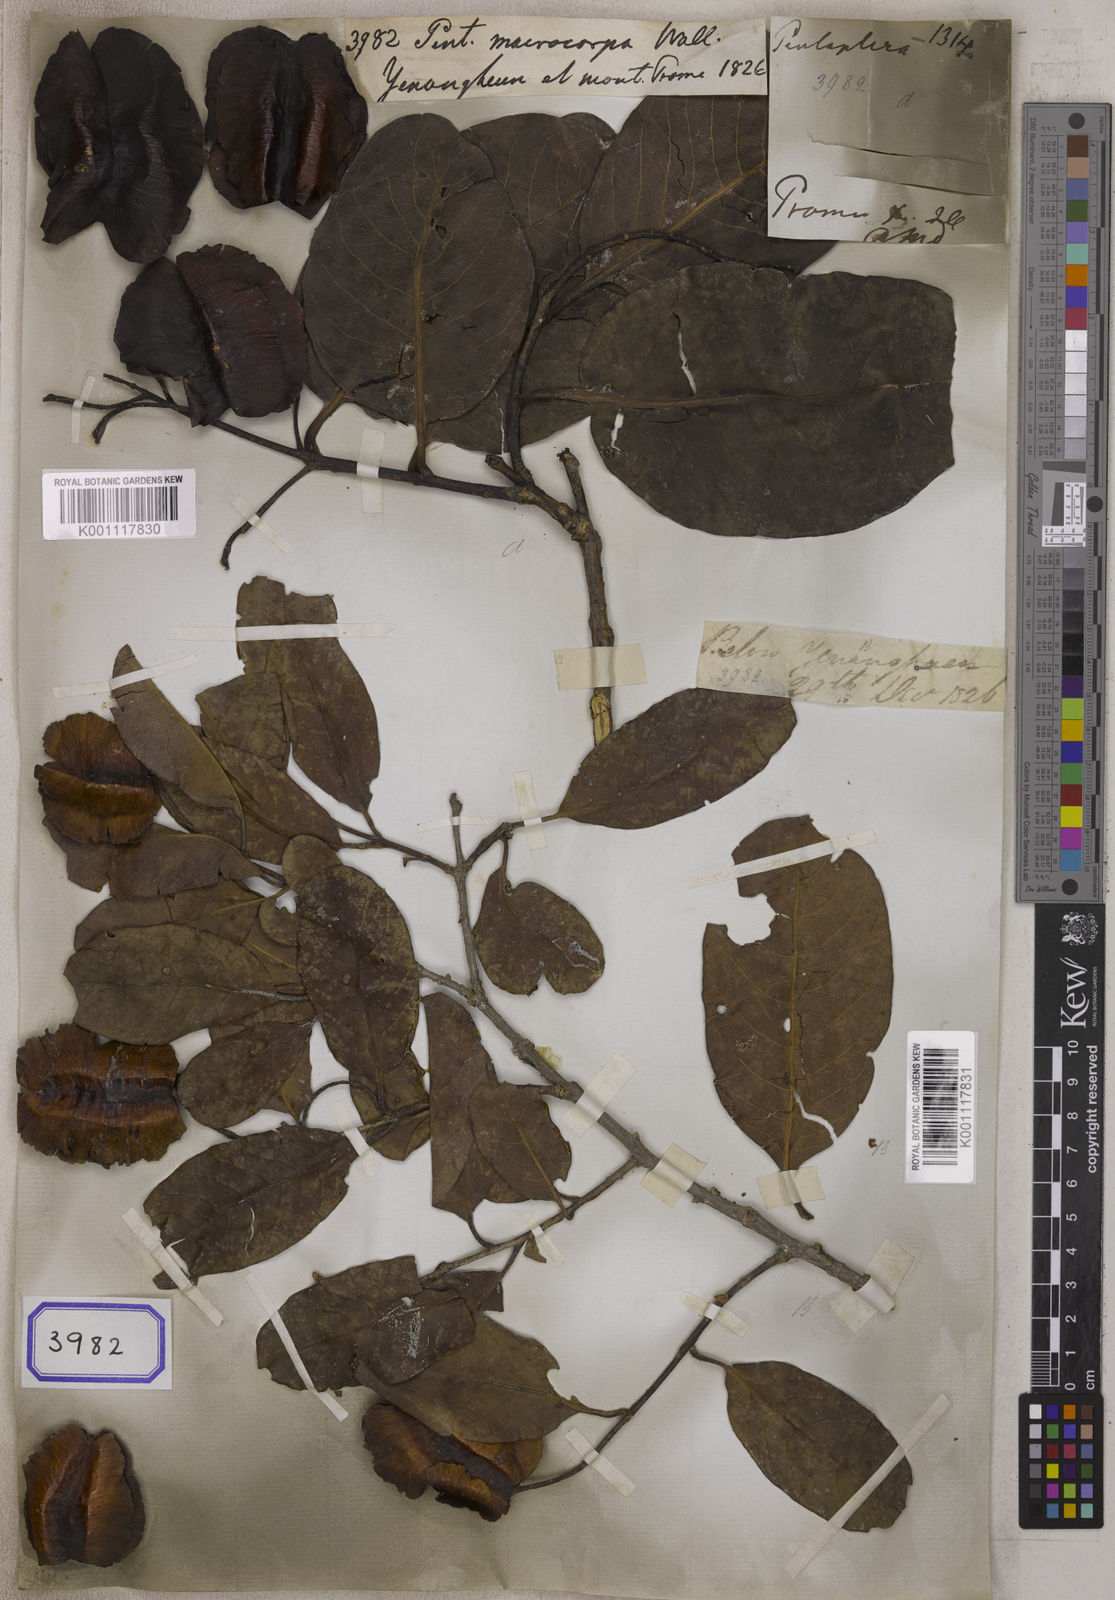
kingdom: Plantae
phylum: Tracheophyta
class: Magnoliopsida
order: Myrtales
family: Combretaceae
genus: Terminalia
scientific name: Terminalia elliptica
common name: Indian-laurel
